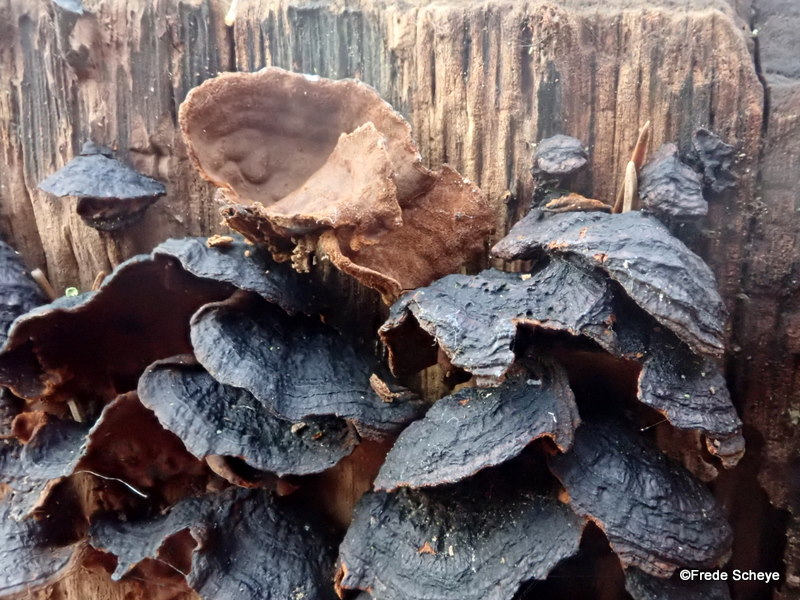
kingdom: Fungi
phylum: Basidiomycota
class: Agaricomycetes
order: Hymenochaetales
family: Hymenochaetaceae
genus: Hymenochaete
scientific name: Hymenochaete rubiginosa
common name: stiv ruslædersvamp
